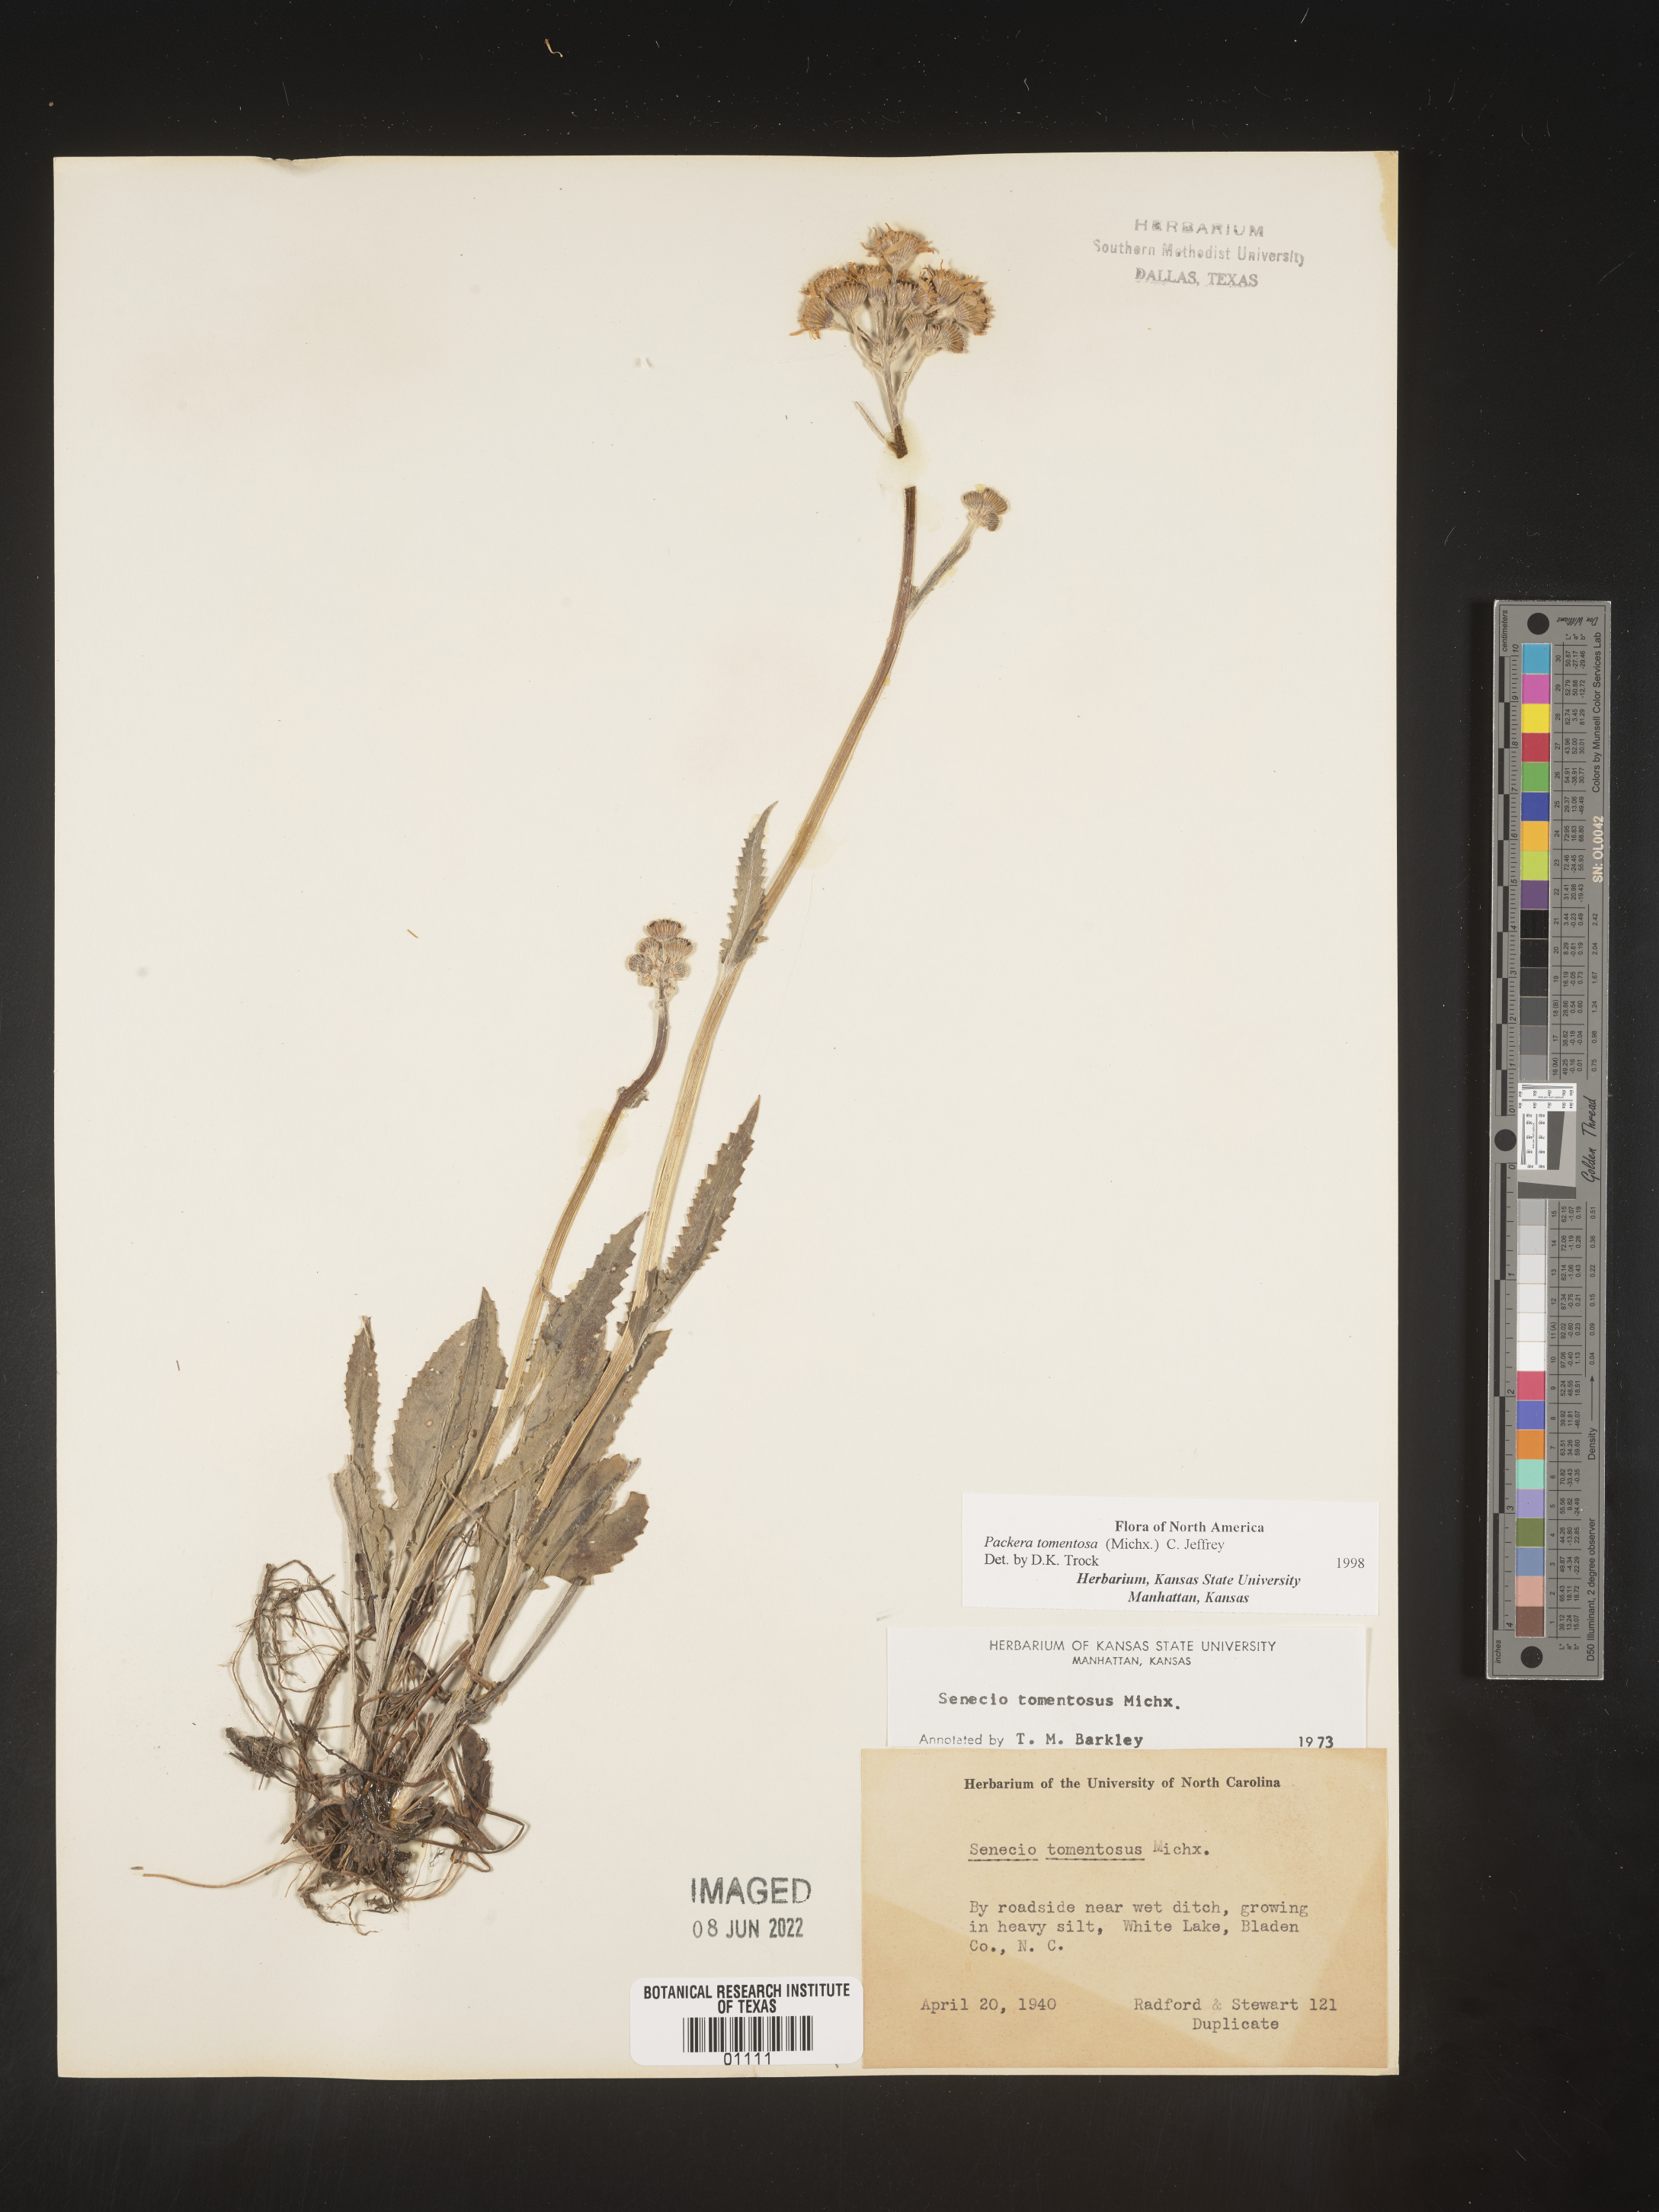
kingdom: Plantae
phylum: Tracheophyta
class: Magnoliopsida
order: Asterales
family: Asteraceae
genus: Packera
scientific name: Packera dubia
